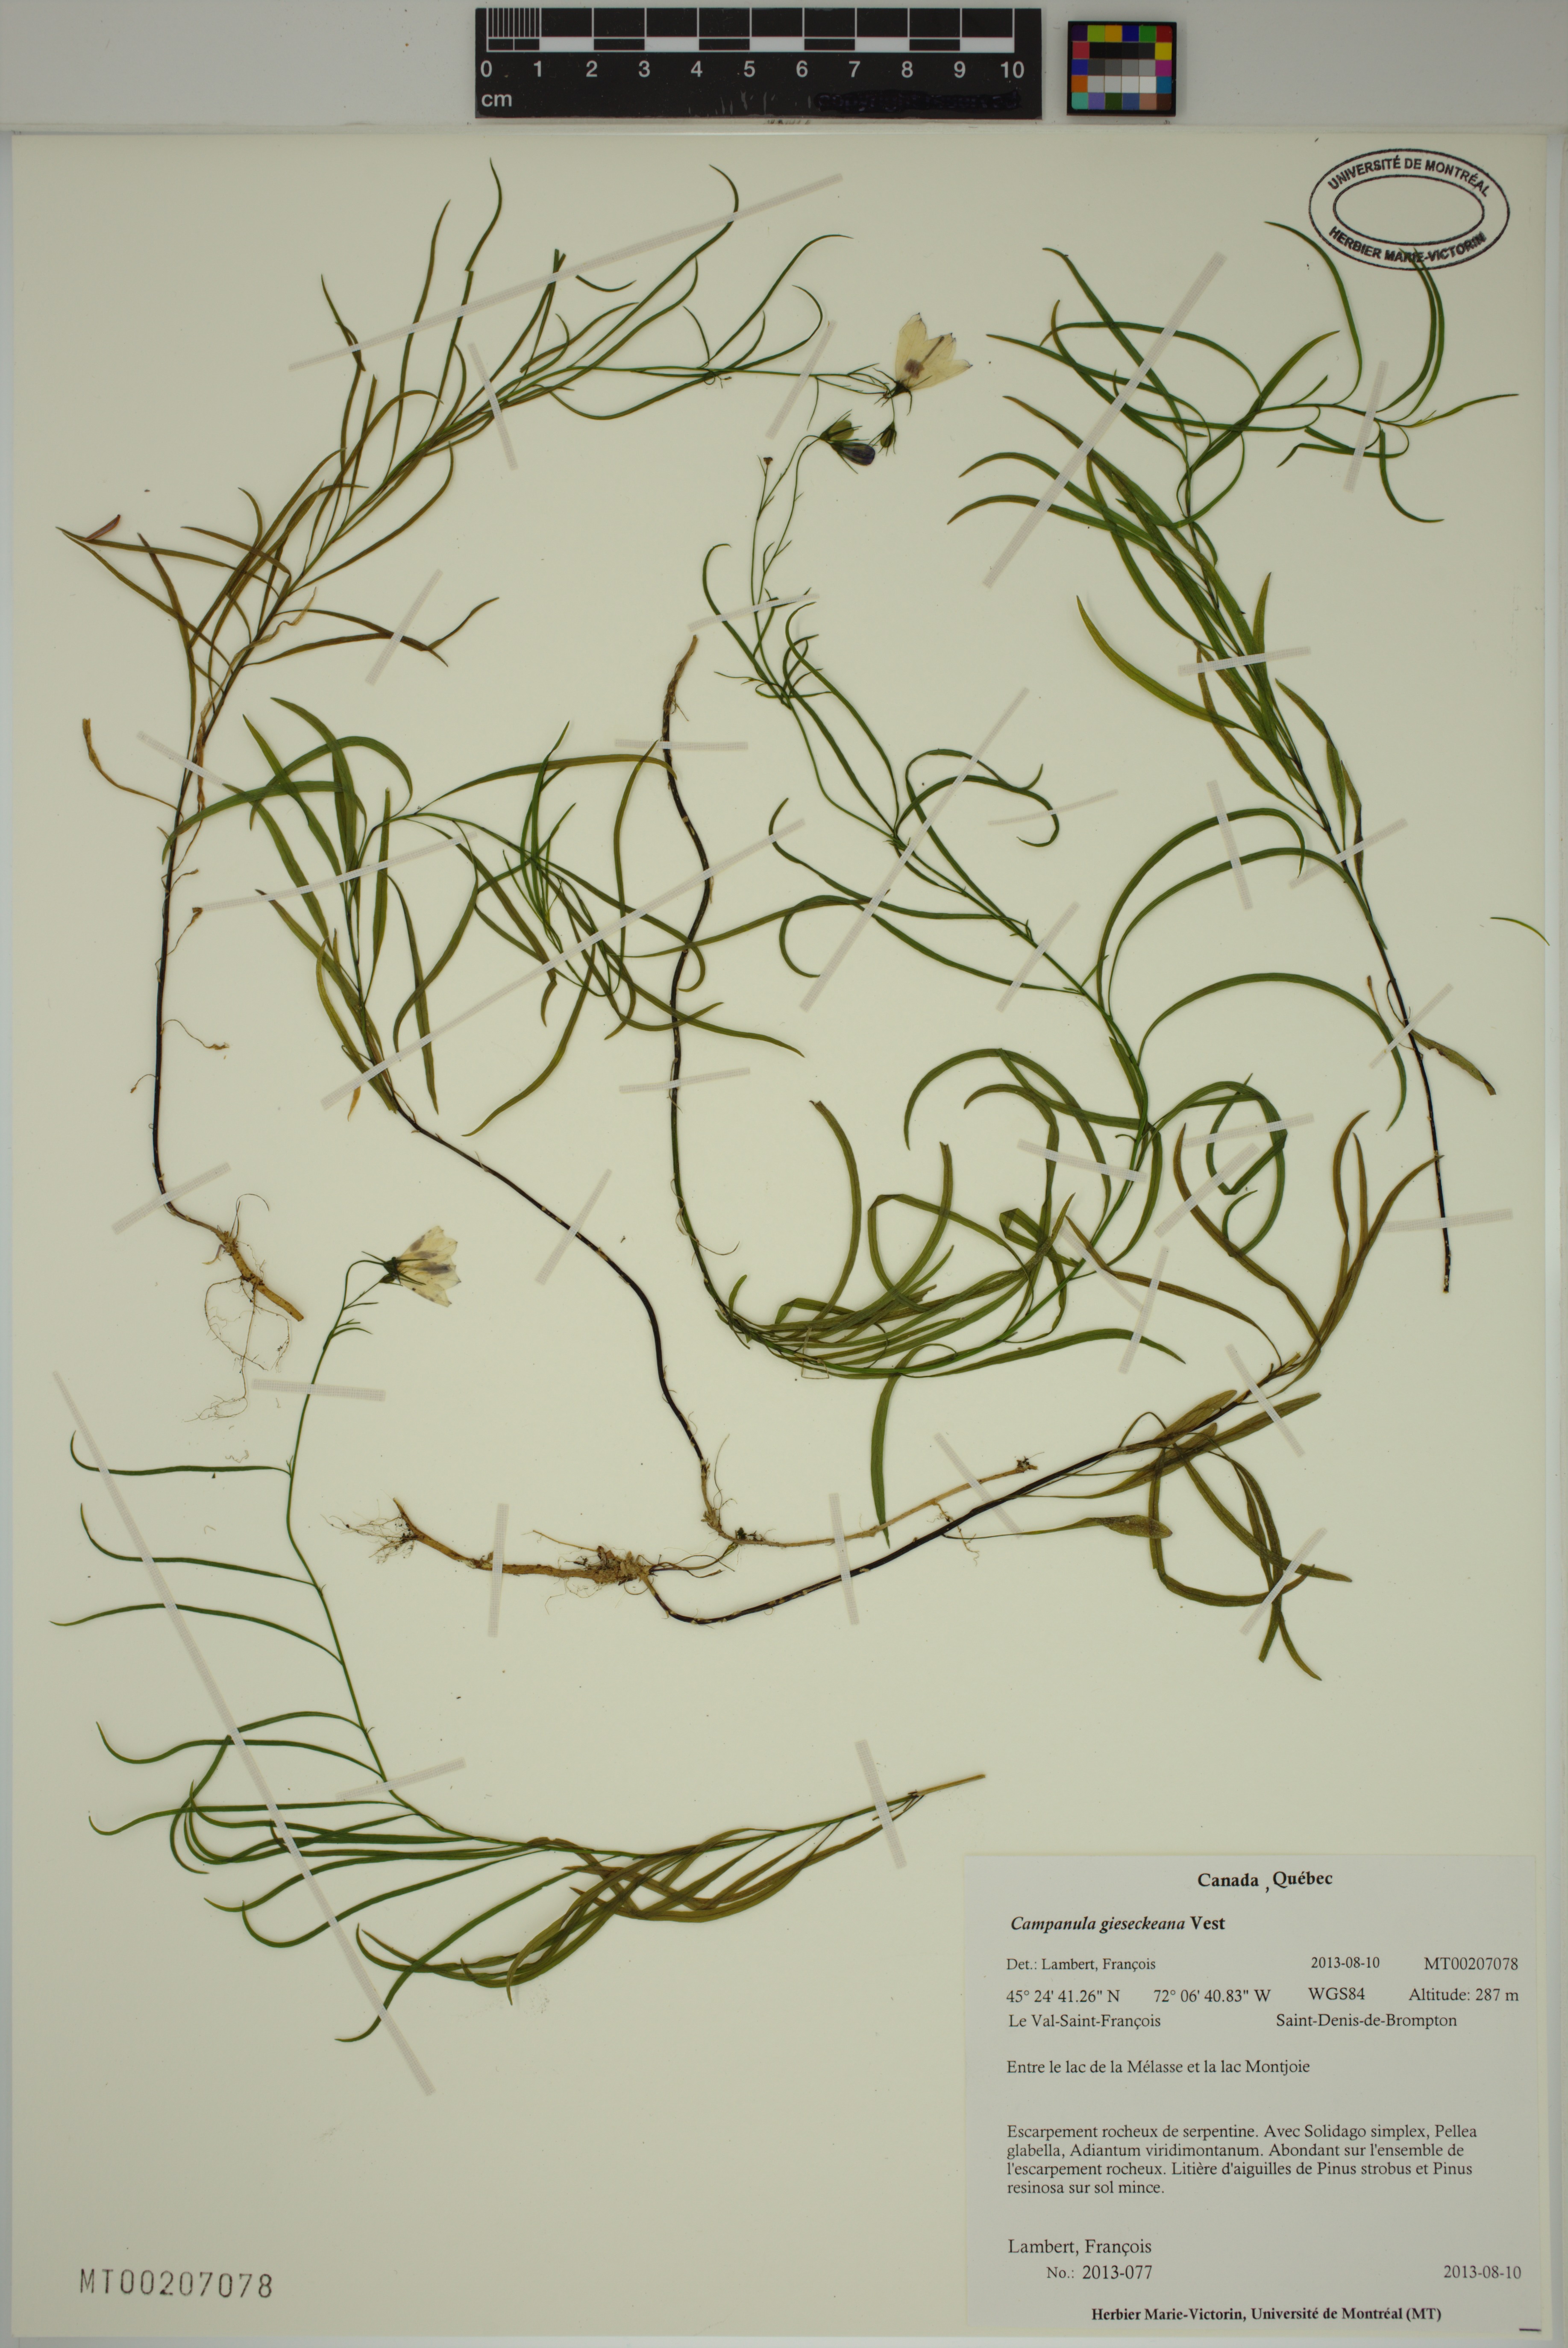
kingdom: Plantae
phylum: Tracheophyta
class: Magnoliopsida
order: Asterales
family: Campanulaceae
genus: Campanula
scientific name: Campanula rotundifolia
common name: Harebell
